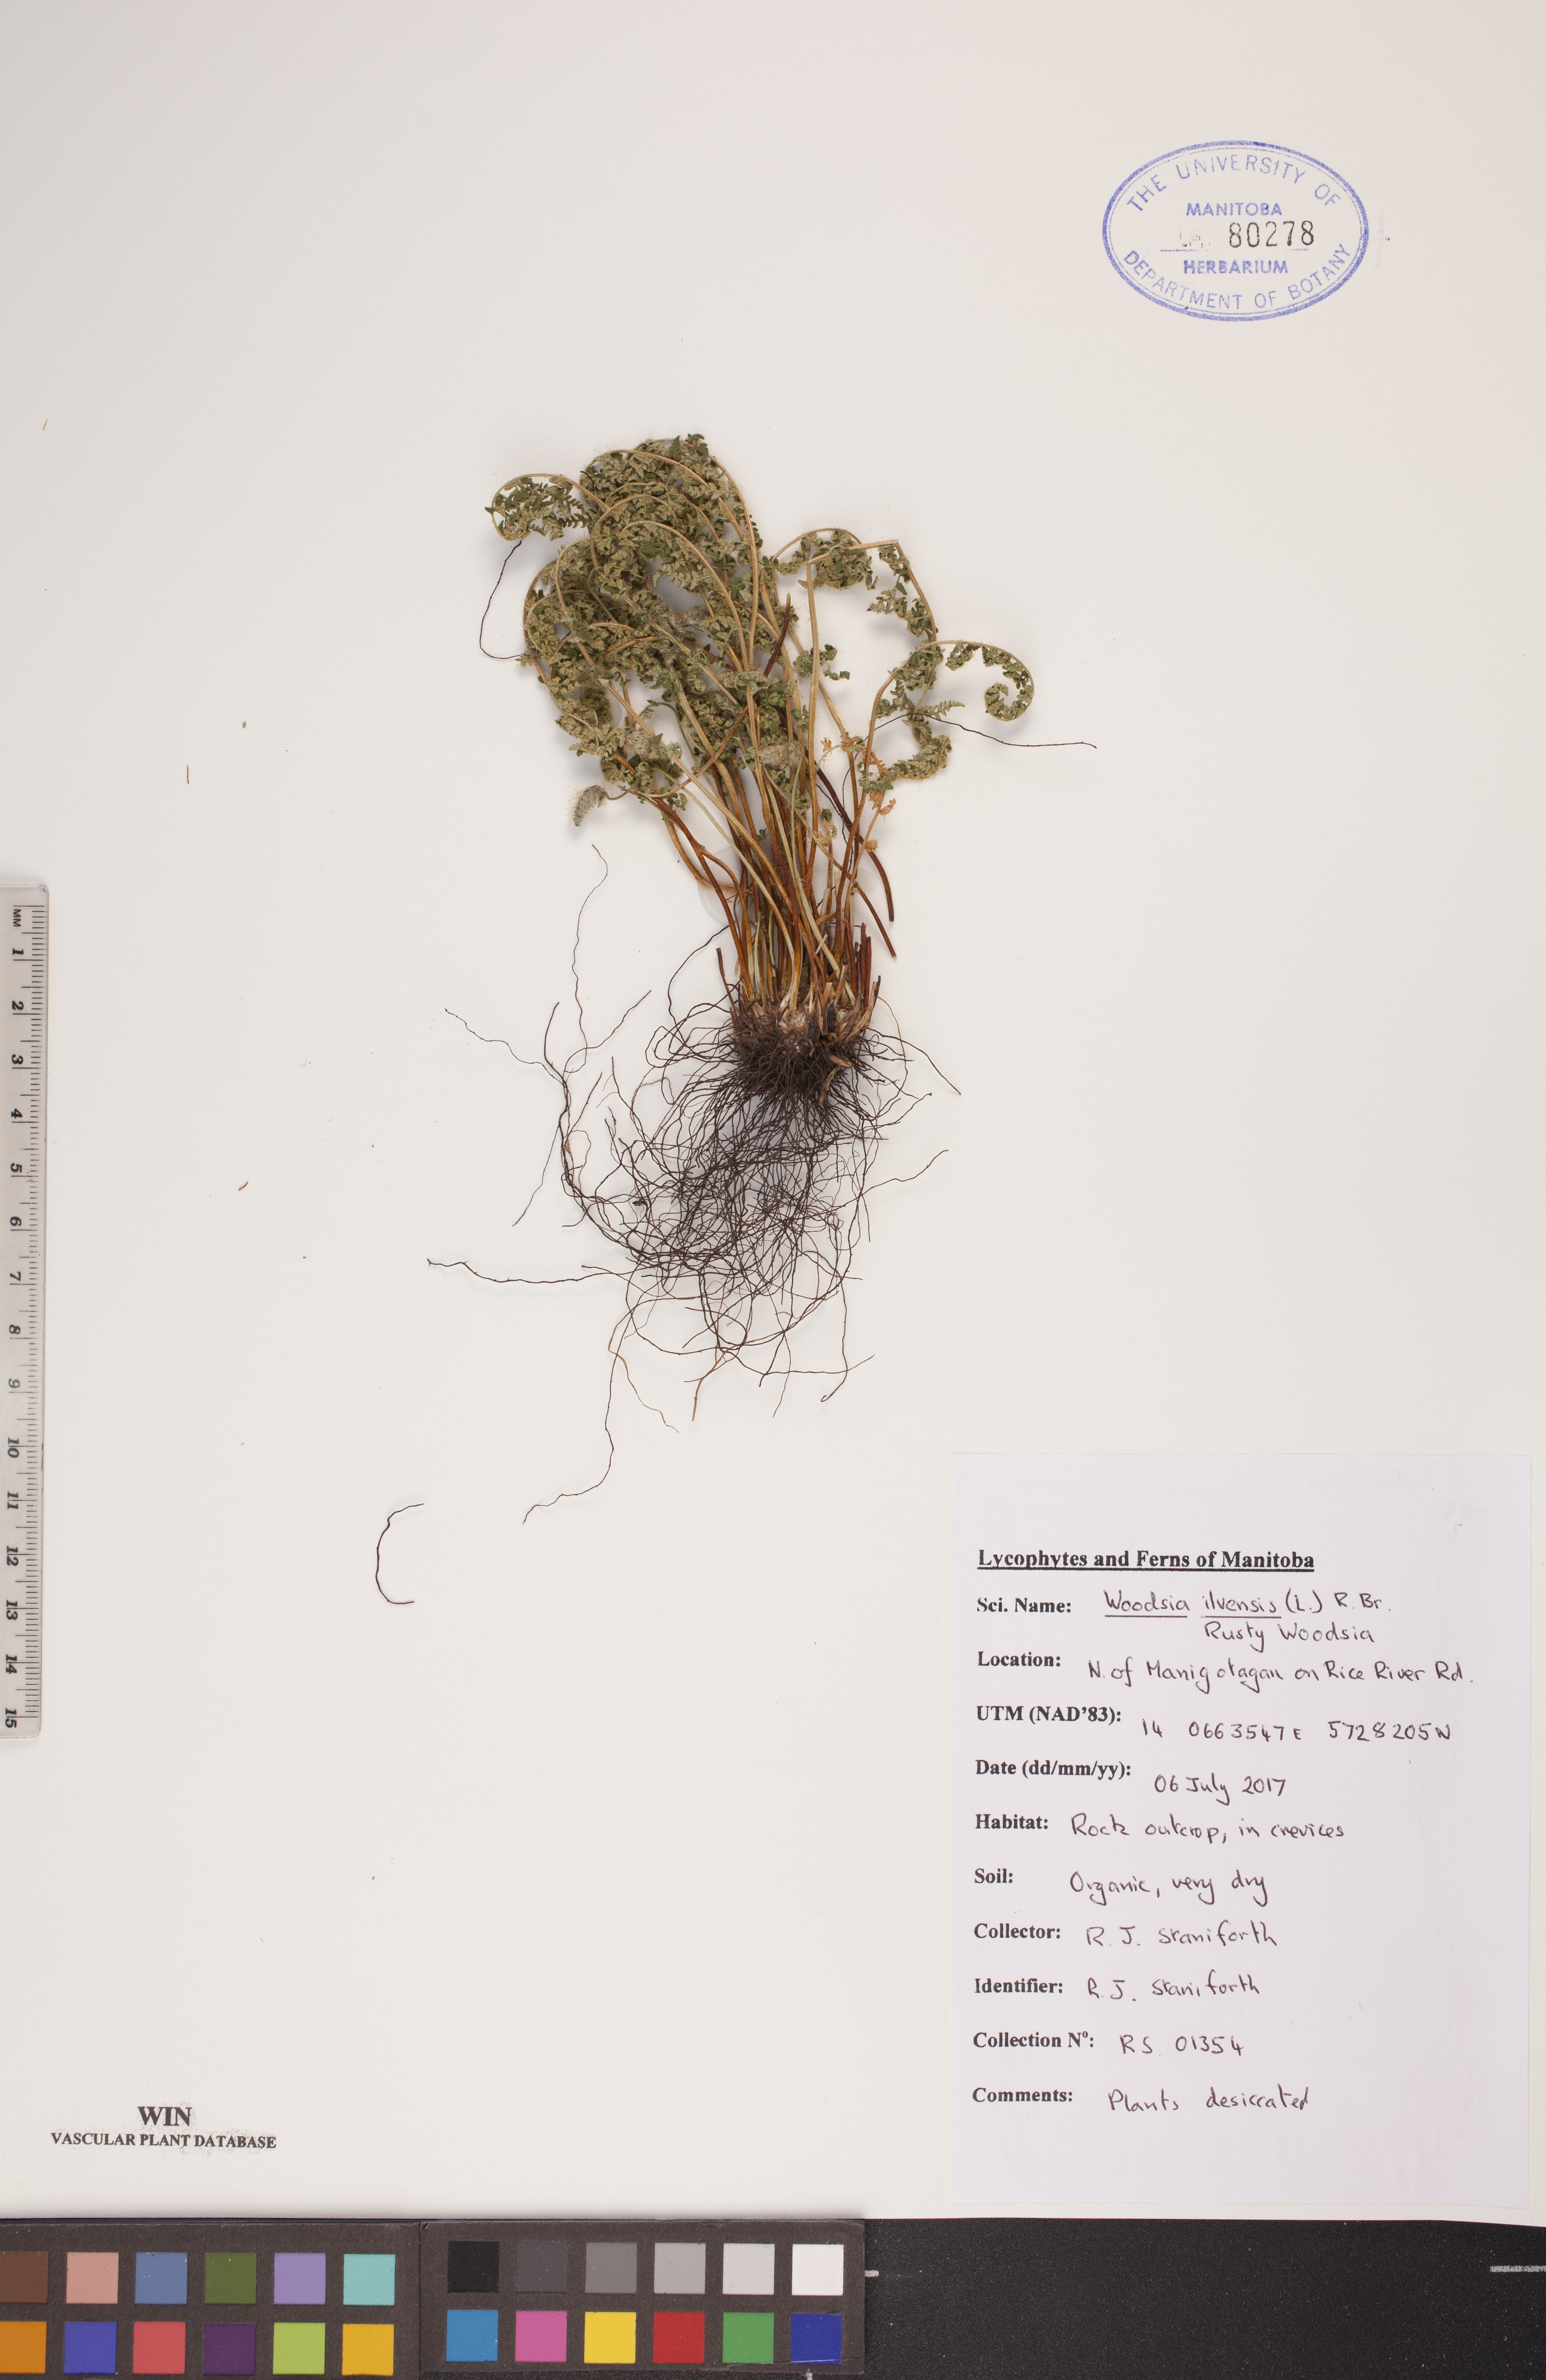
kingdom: Plantae
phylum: Tracheophyta
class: Polypodiopsida
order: Polypodiales
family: Woodsiaceae
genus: Woodsia
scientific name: Woodsia ilvensis
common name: Fragrant woodsia
